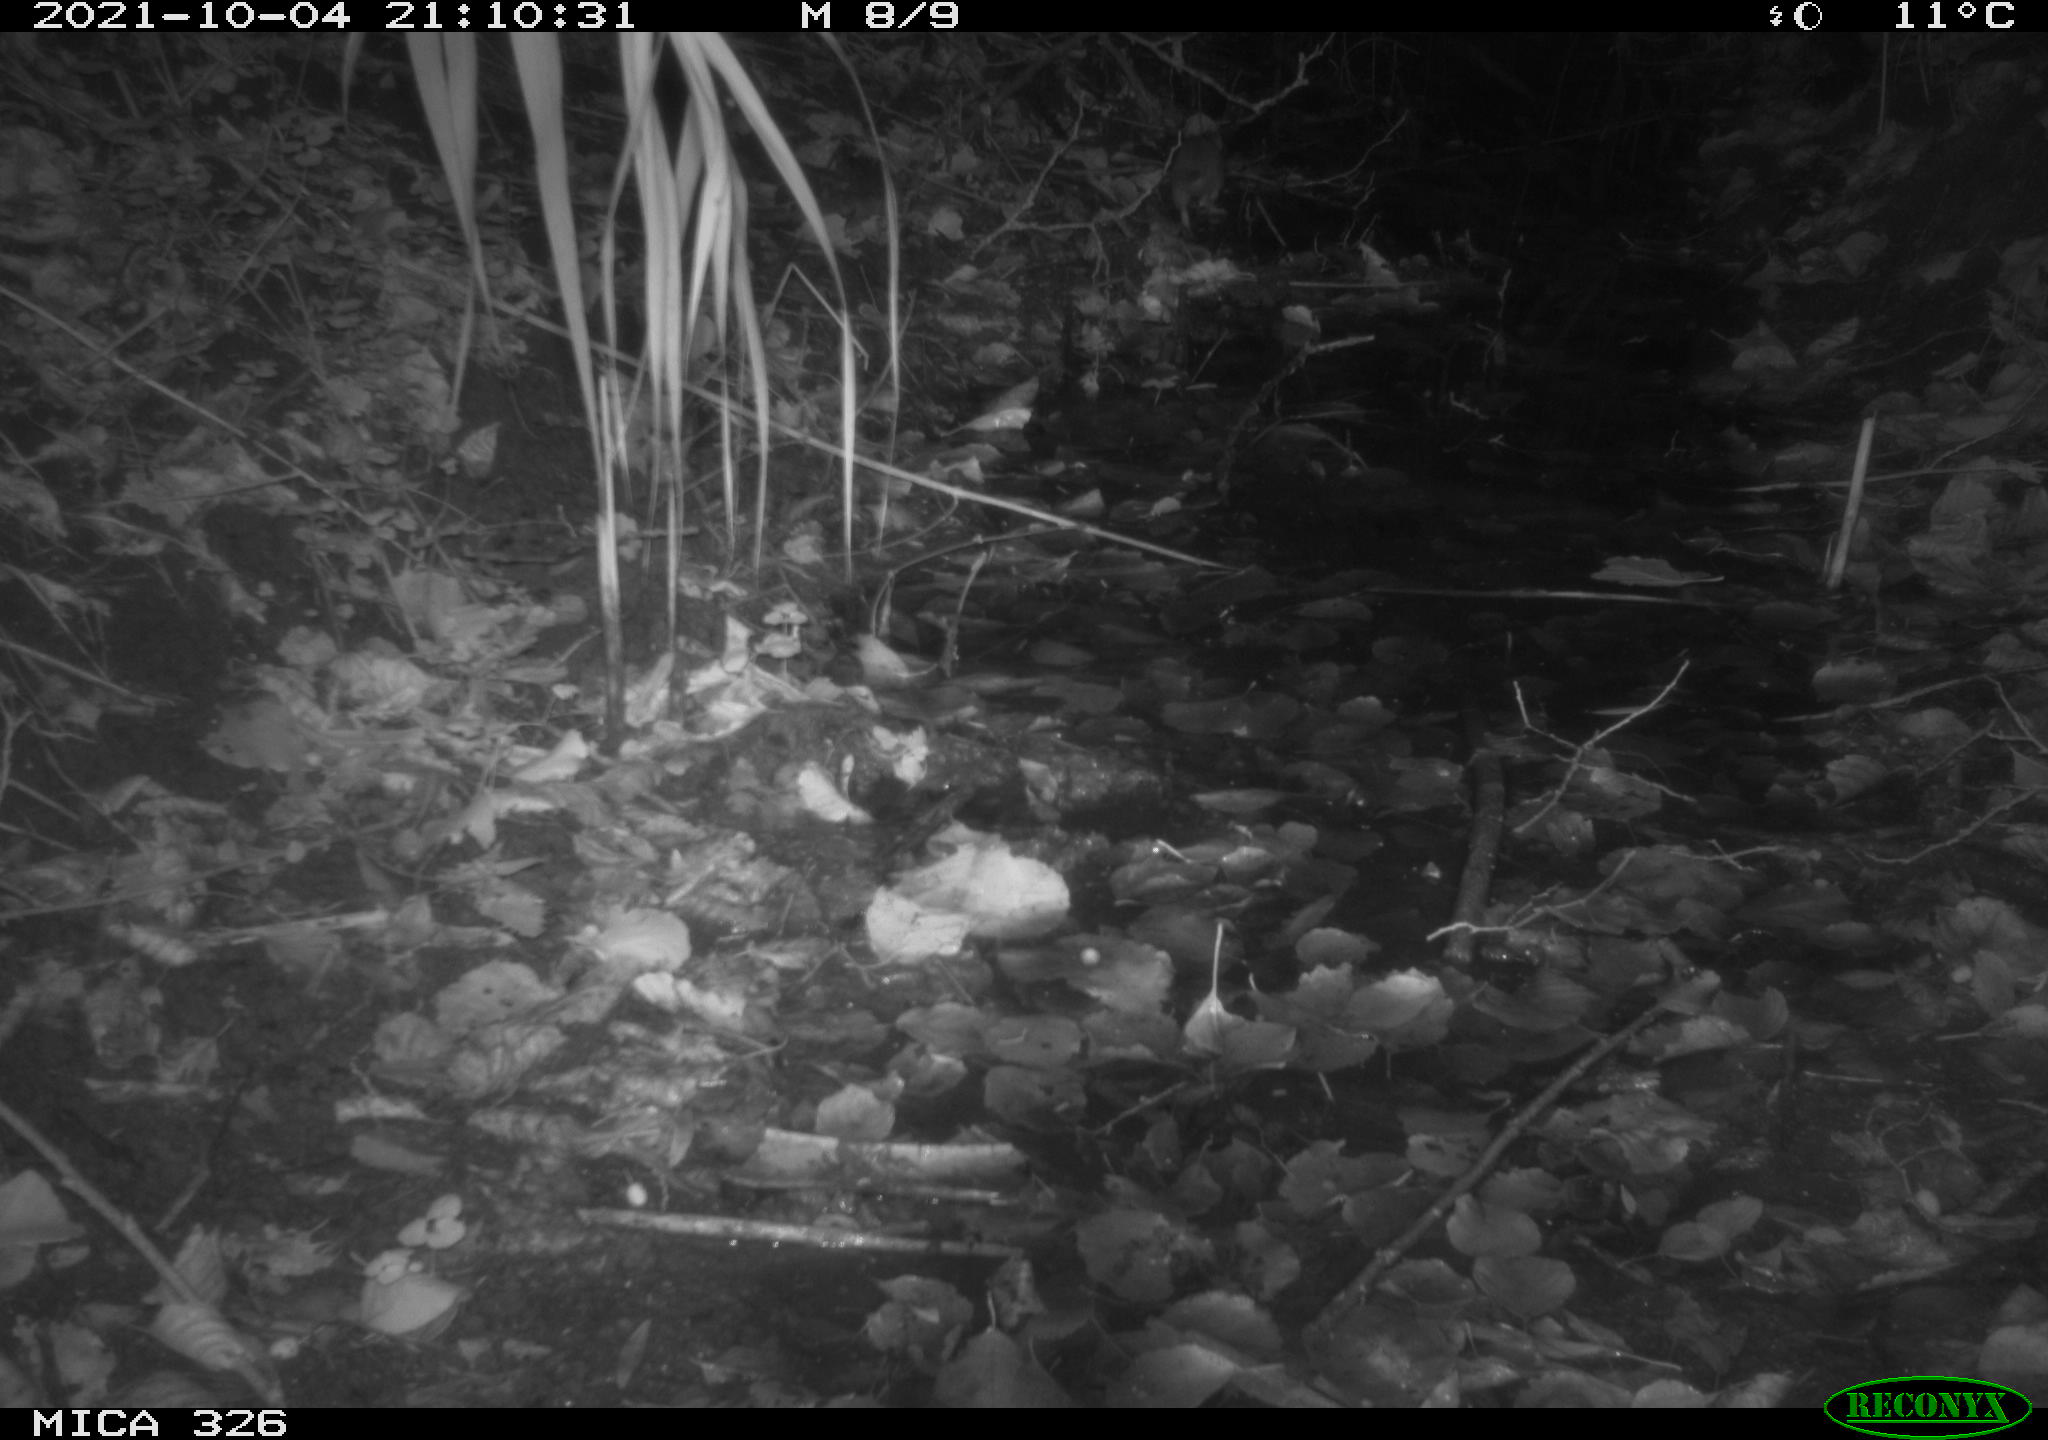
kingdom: Animalia
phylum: Chordata
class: Mammalia
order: Rodentia
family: Muridae
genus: Rattus
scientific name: Rattus norvegicus
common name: Brown rat
